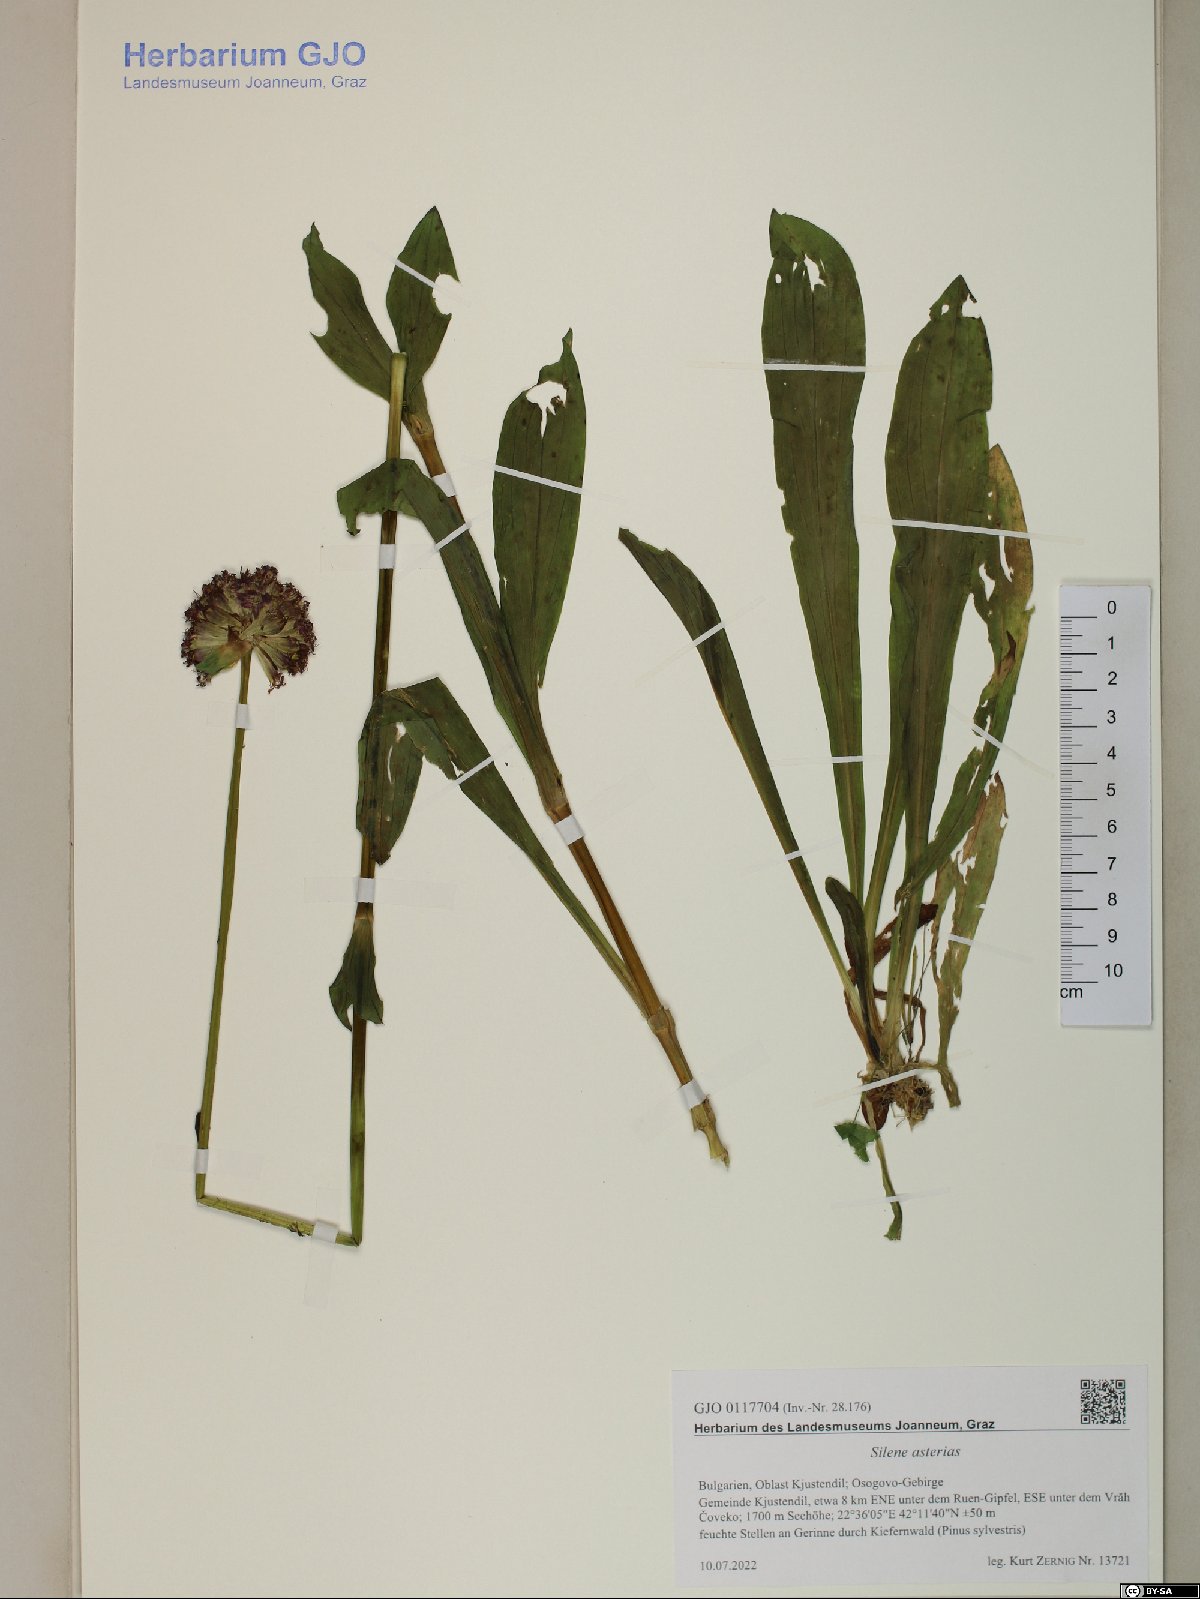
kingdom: Plantae
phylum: Tracheophyta
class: Magnoliopsida
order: Caryophyllales
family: Caryophyllaceae
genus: Viscaria
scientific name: Viscaria asterias
